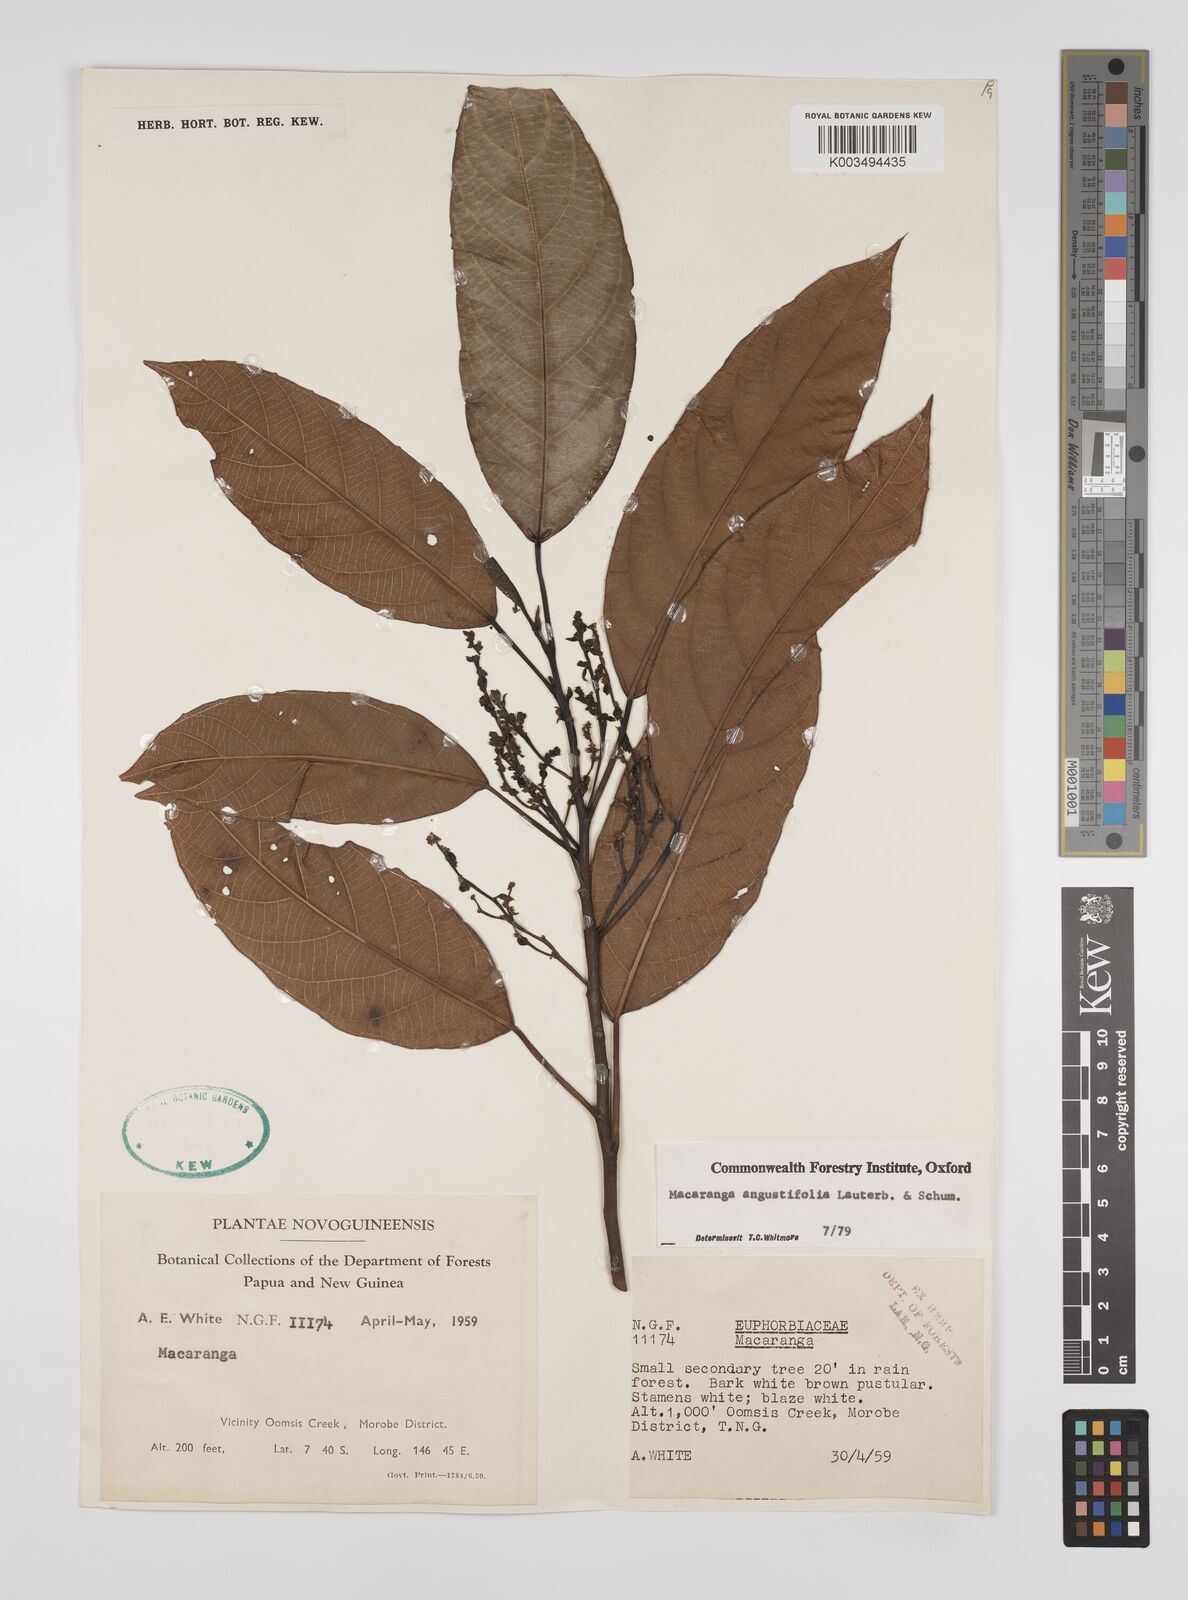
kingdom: Plantae
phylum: Tracheophyta
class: Magnoliopsida
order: Malpighiales
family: Euphorbiaceae
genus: Macaranga
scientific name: Macaranga angustifolia
